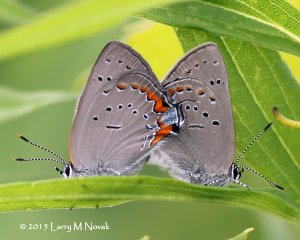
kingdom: Animalia
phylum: Arthropoda
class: Insecta
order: Lepidoptera
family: Lycaenidae
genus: Strymon
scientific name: Strymon acadica
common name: Acadian Hairstreak
